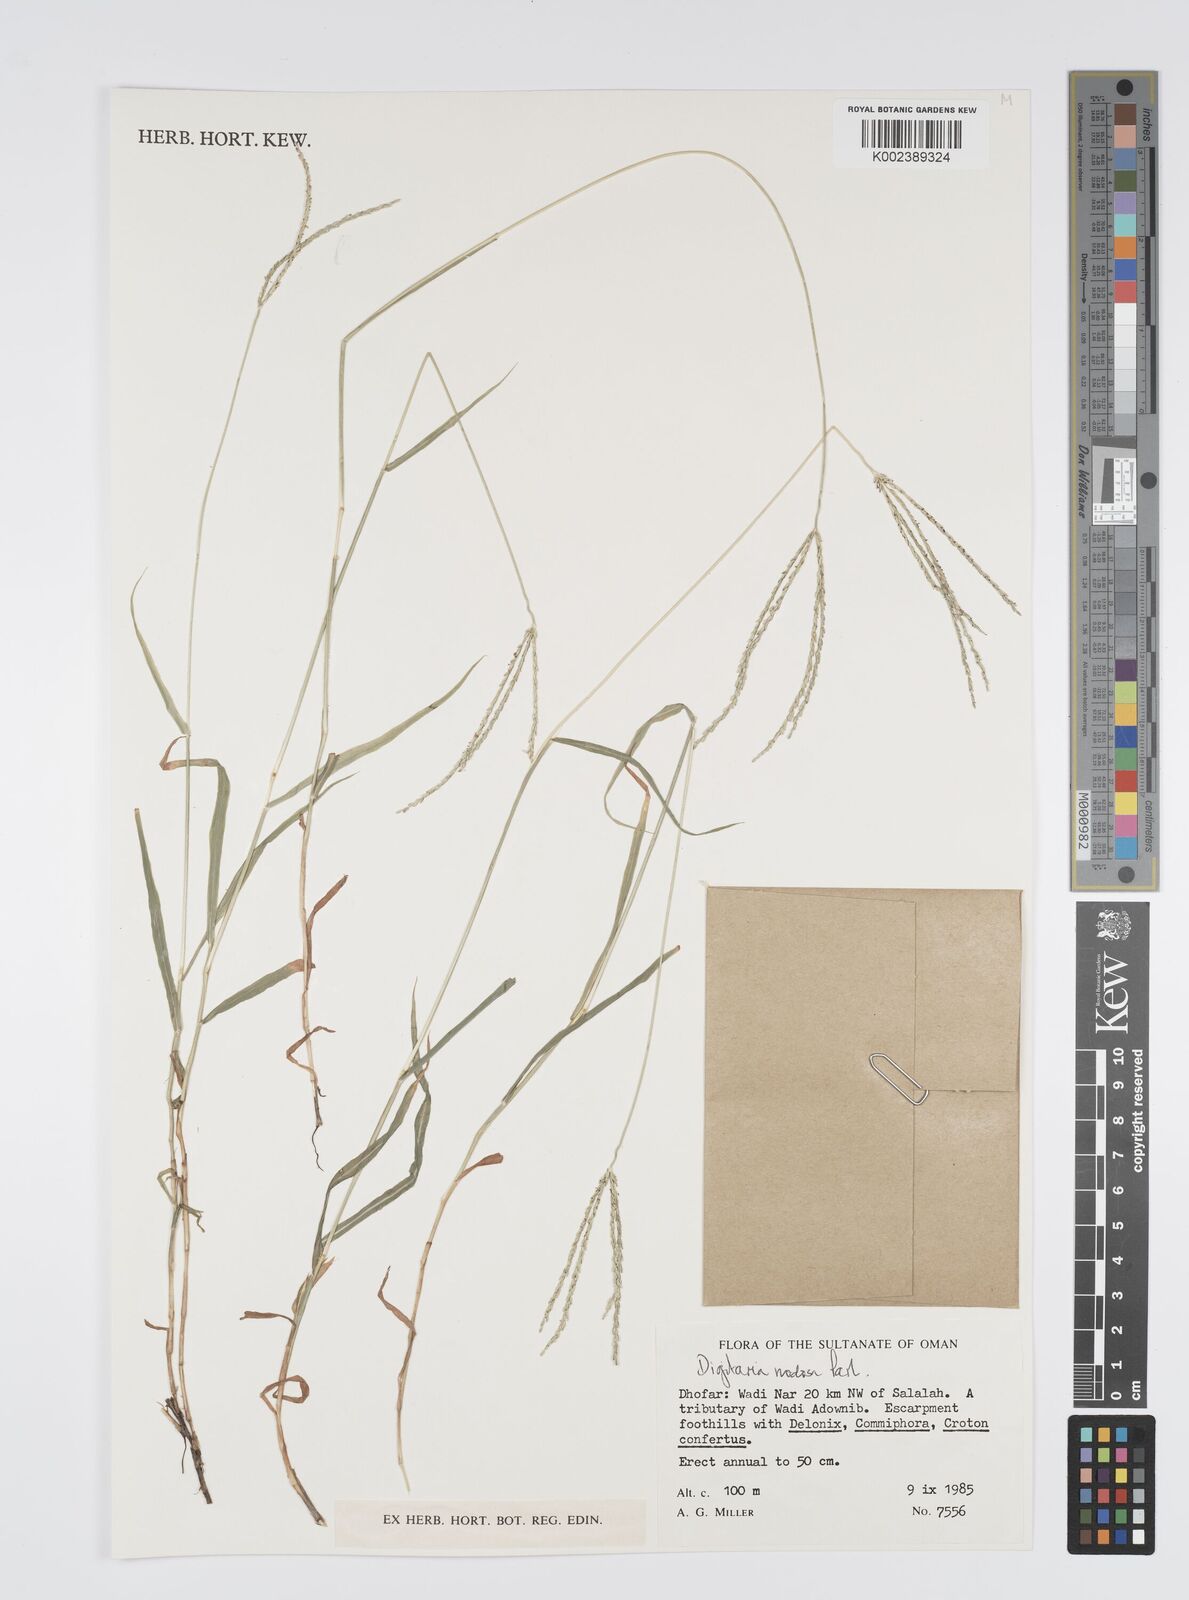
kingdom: Plantae
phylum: Tracheophyta
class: Liliopsida
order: Poales
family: Poaceae
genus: Digitaria
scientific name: Digitaria nodosa
